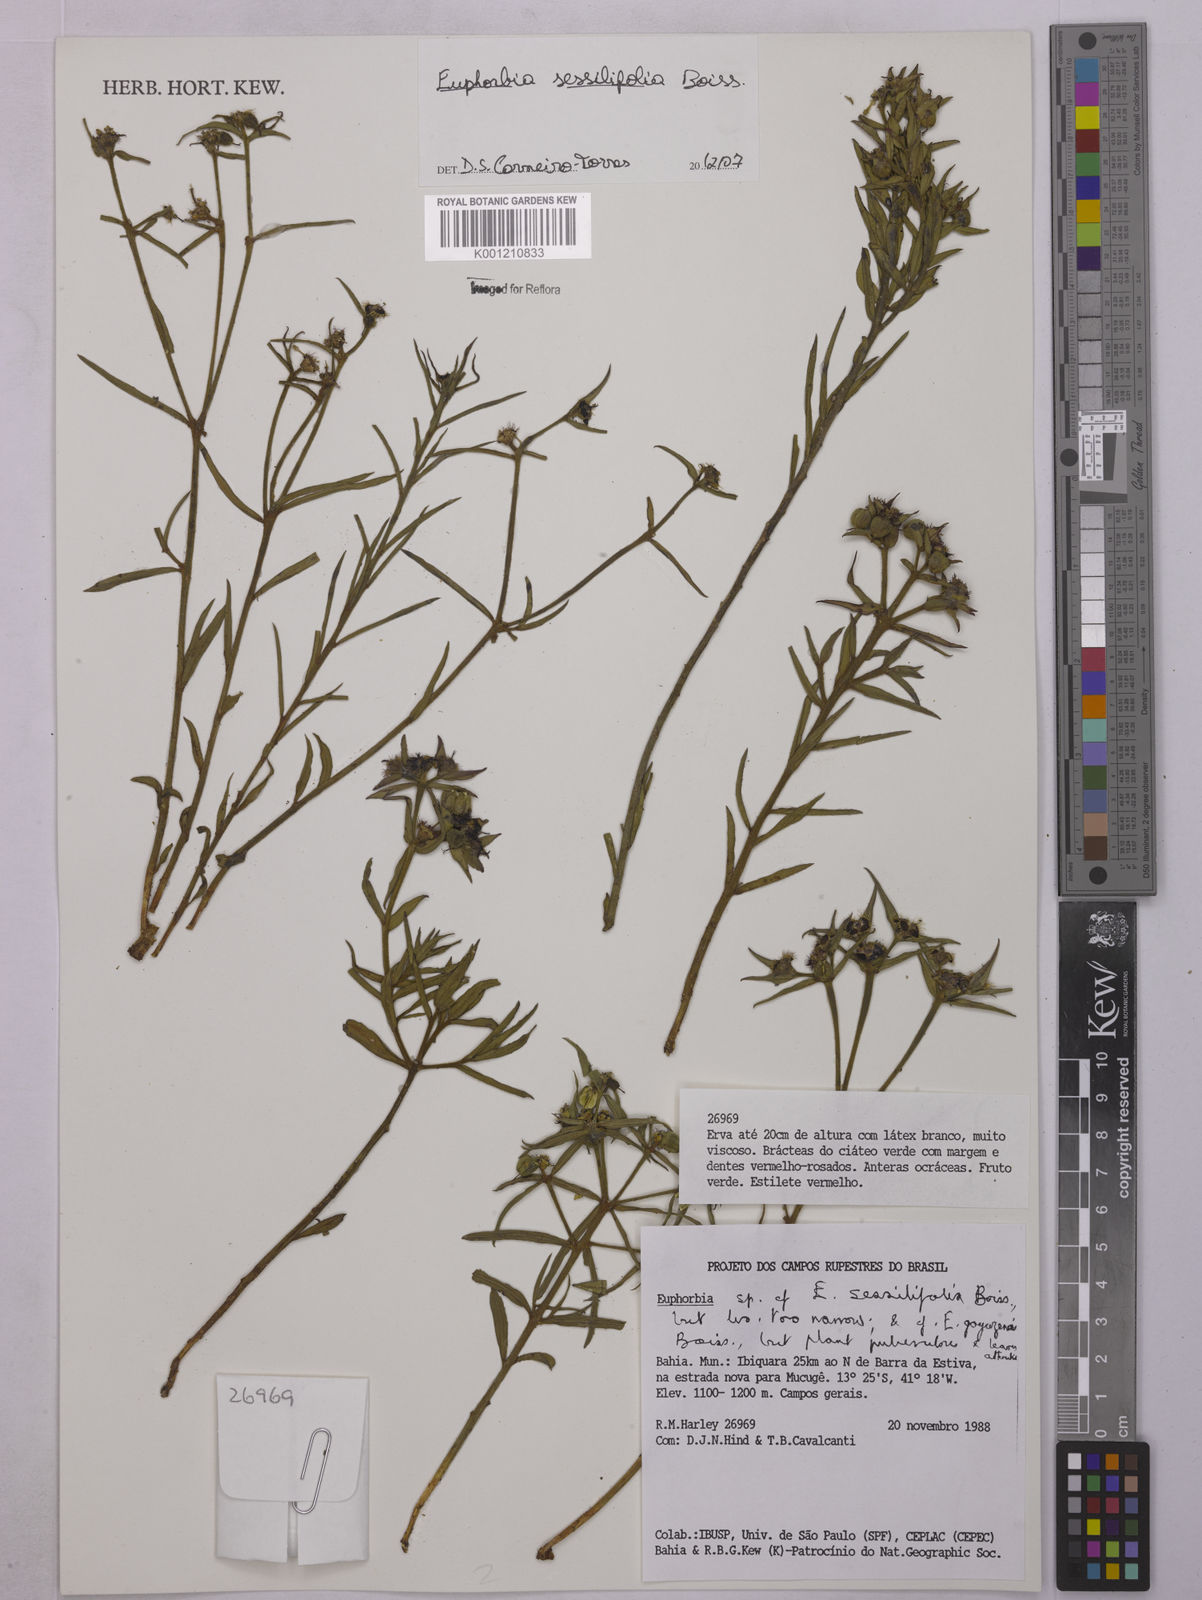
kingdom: Plantae
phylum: Tracheophyta
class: Magnoliopsida
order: Malpighiales
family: Euphorbiaceae
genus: Euphorbia
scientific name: Euphorbia sessilifolia
